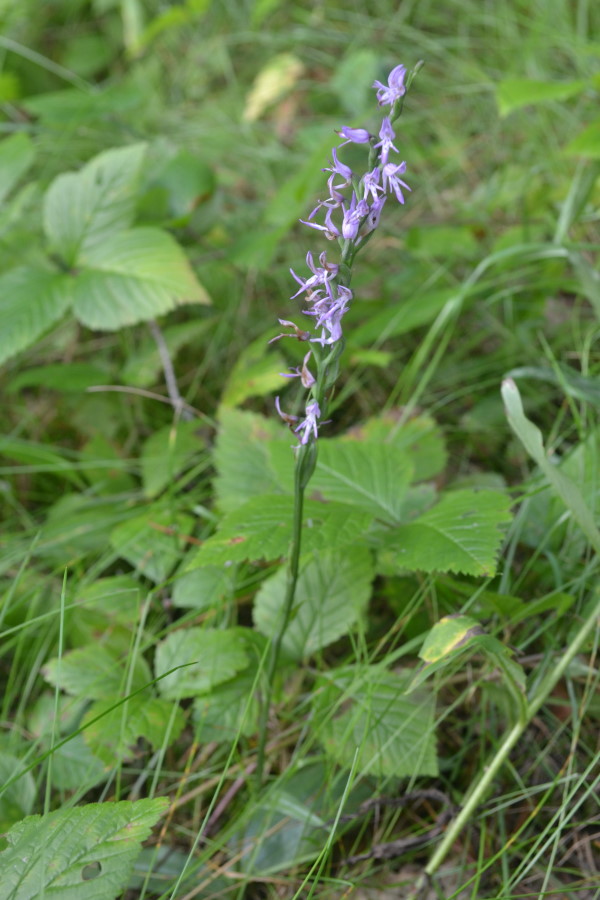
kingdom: Plantae
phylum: Tracheophyta
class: Liliopsida
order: Asparagales
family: Orchidaceae
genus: Hemipilia
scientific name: Hemipilia cucullata
